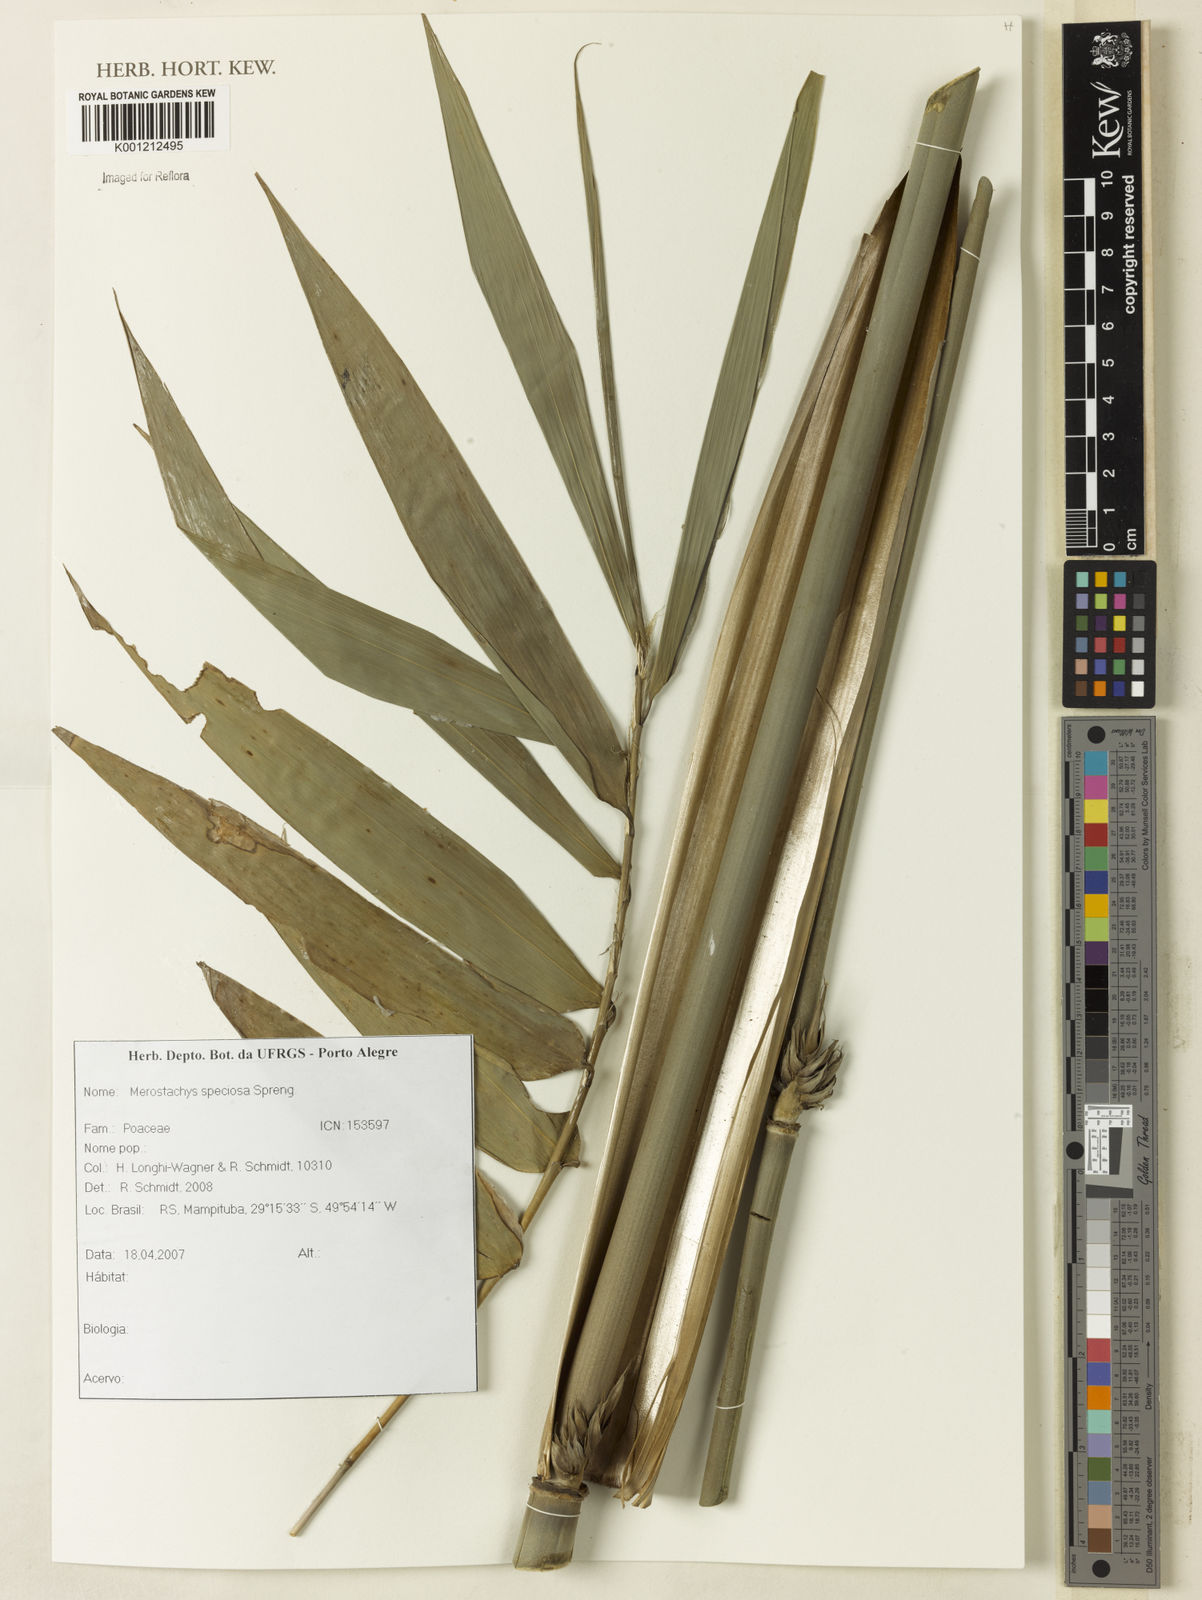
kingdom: Plantae
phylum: Tracheophyta
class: Liliopsida
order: Poales
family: Poaceae
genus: Merostachys
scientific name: Merostachys speciosa
